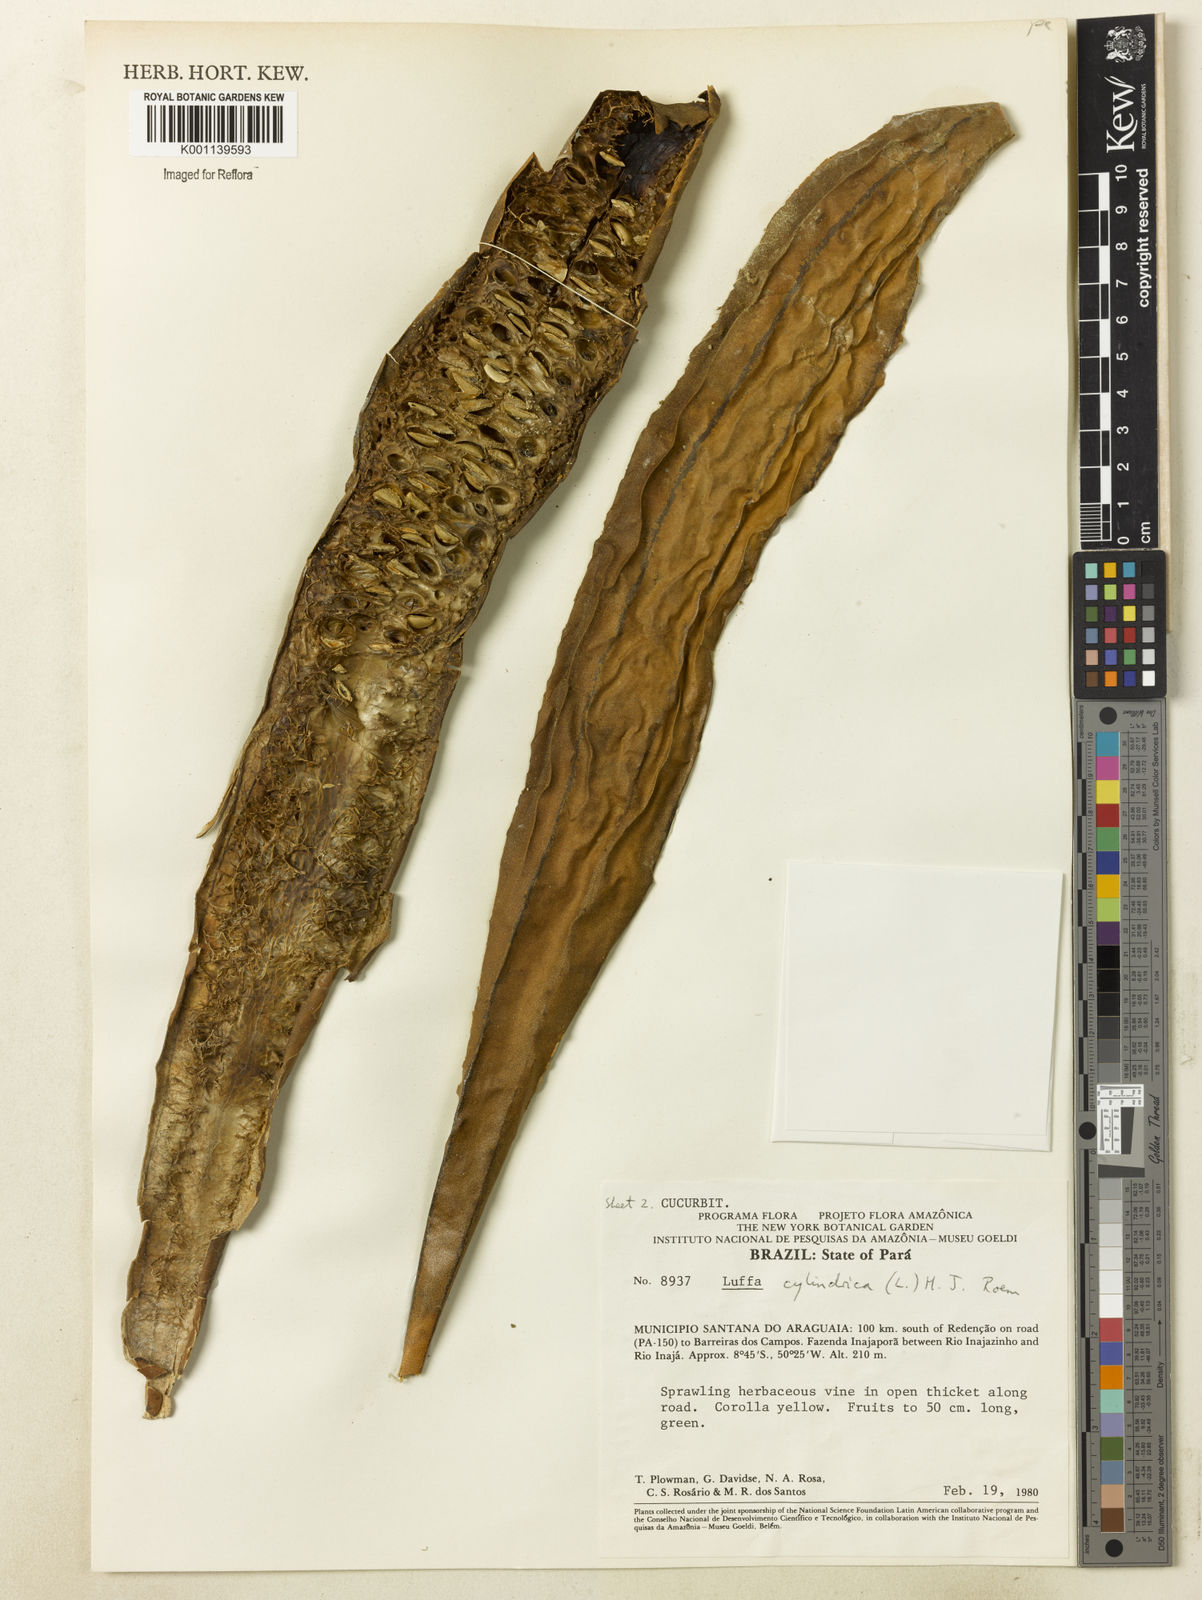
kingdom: Plantae
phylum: Tracheophyta
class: Magnoliopsida
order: Cucurbitales
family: Cucurbitaceae
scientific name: Cucurbitaceae
